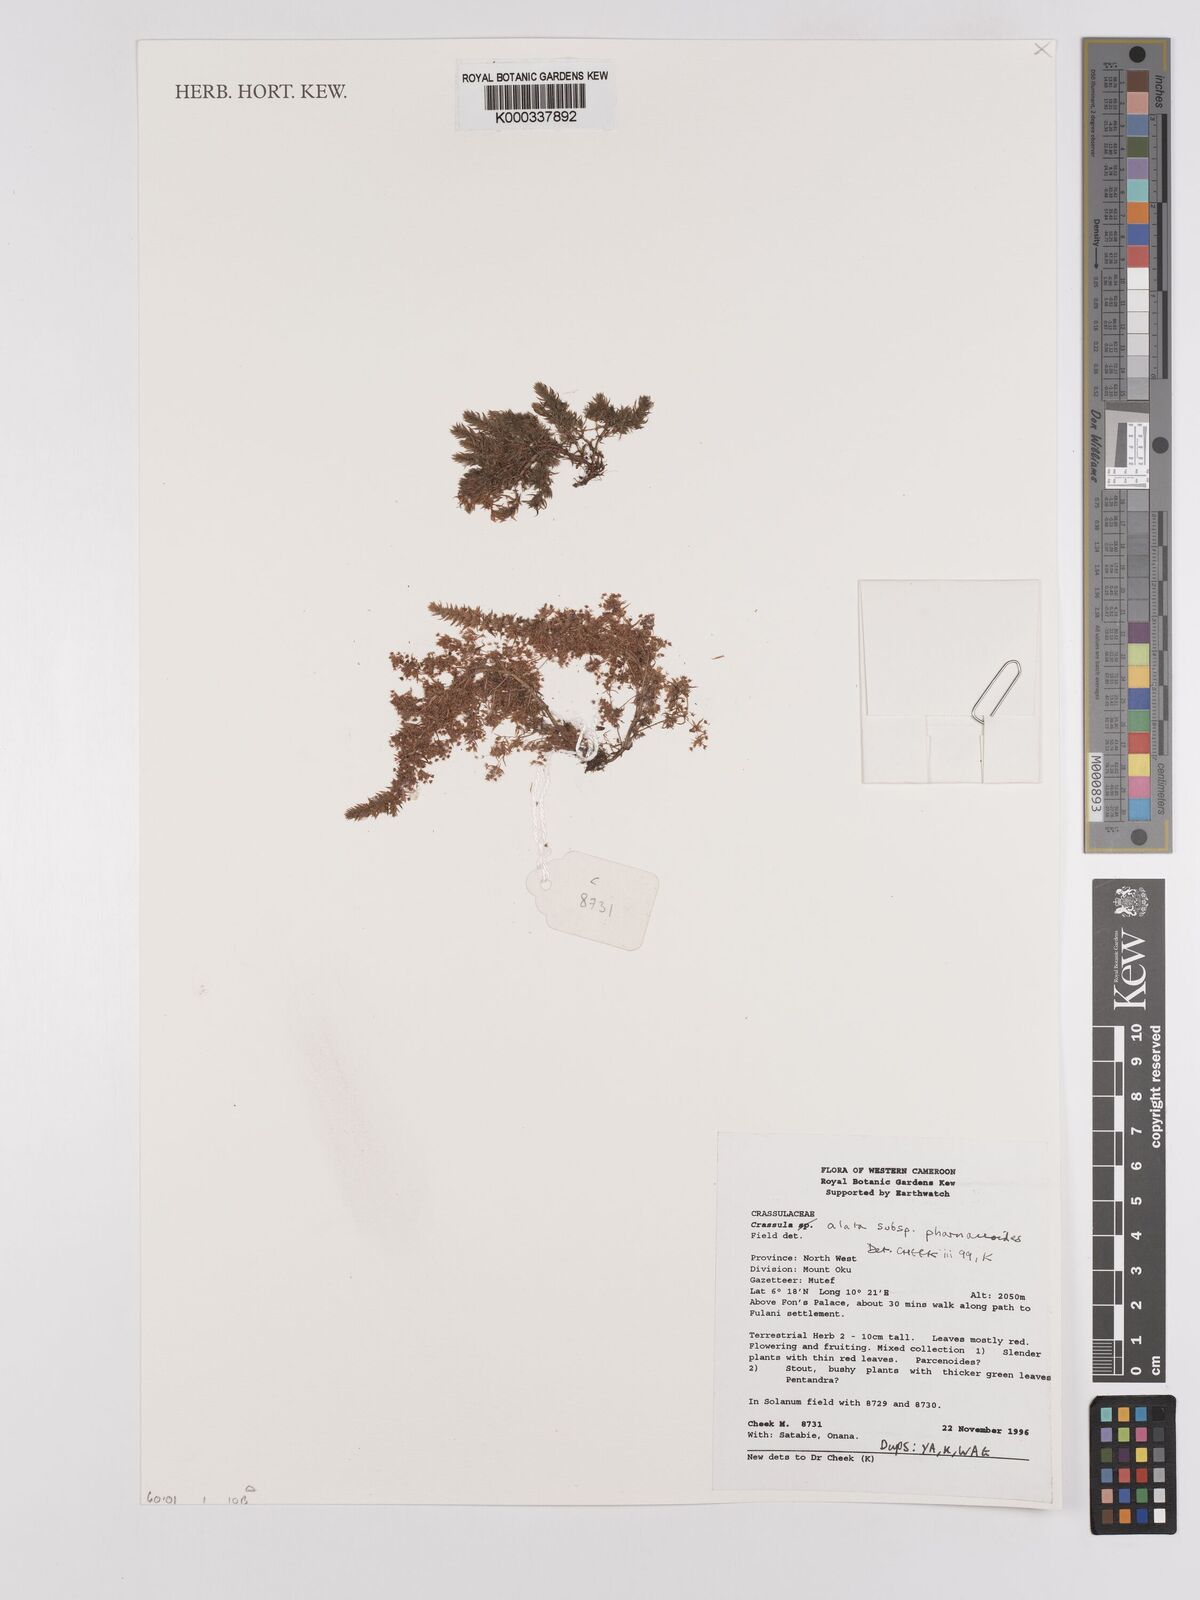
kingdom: Plantae
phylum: Tracheophyta
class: Magnoliopsida
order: Saxifragales
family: Crassulaceae
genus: Crassula
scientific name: Crassula alata
